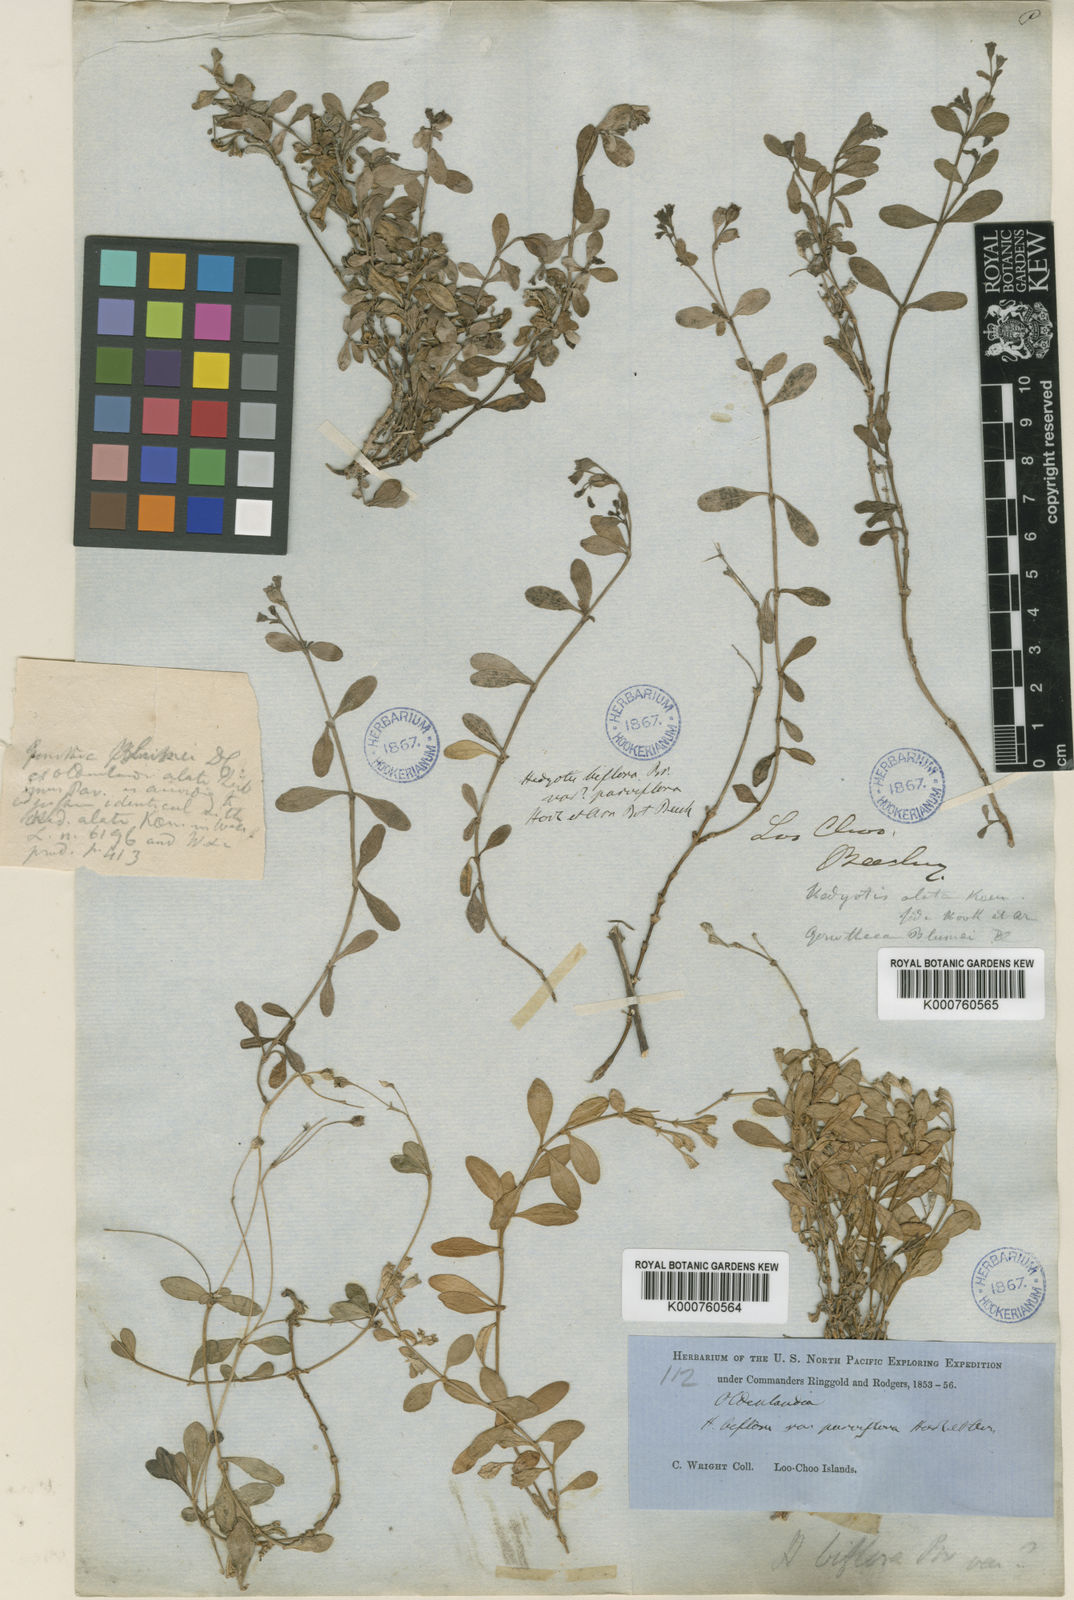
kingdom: Plantae
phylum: Tracheophyta
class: Magnoliopsida
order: Gentianales
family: Rubiaceae
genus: Leptopetalum
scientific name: Leptopetalum strigulosum
